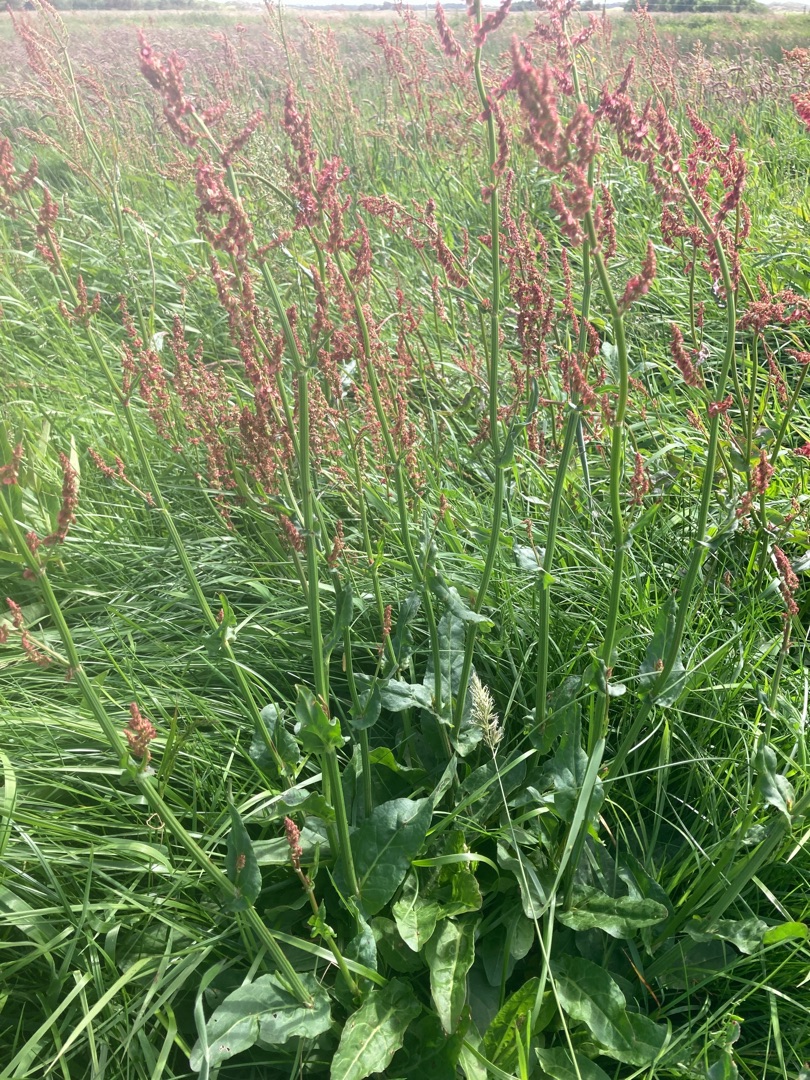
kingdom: Plantae
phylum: Tracheophyta
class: Magnoliopsida
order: Caryophyllales
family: Polygonaceae
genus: Rumex
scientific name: Rumex acetosa
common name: Almindelig syre
